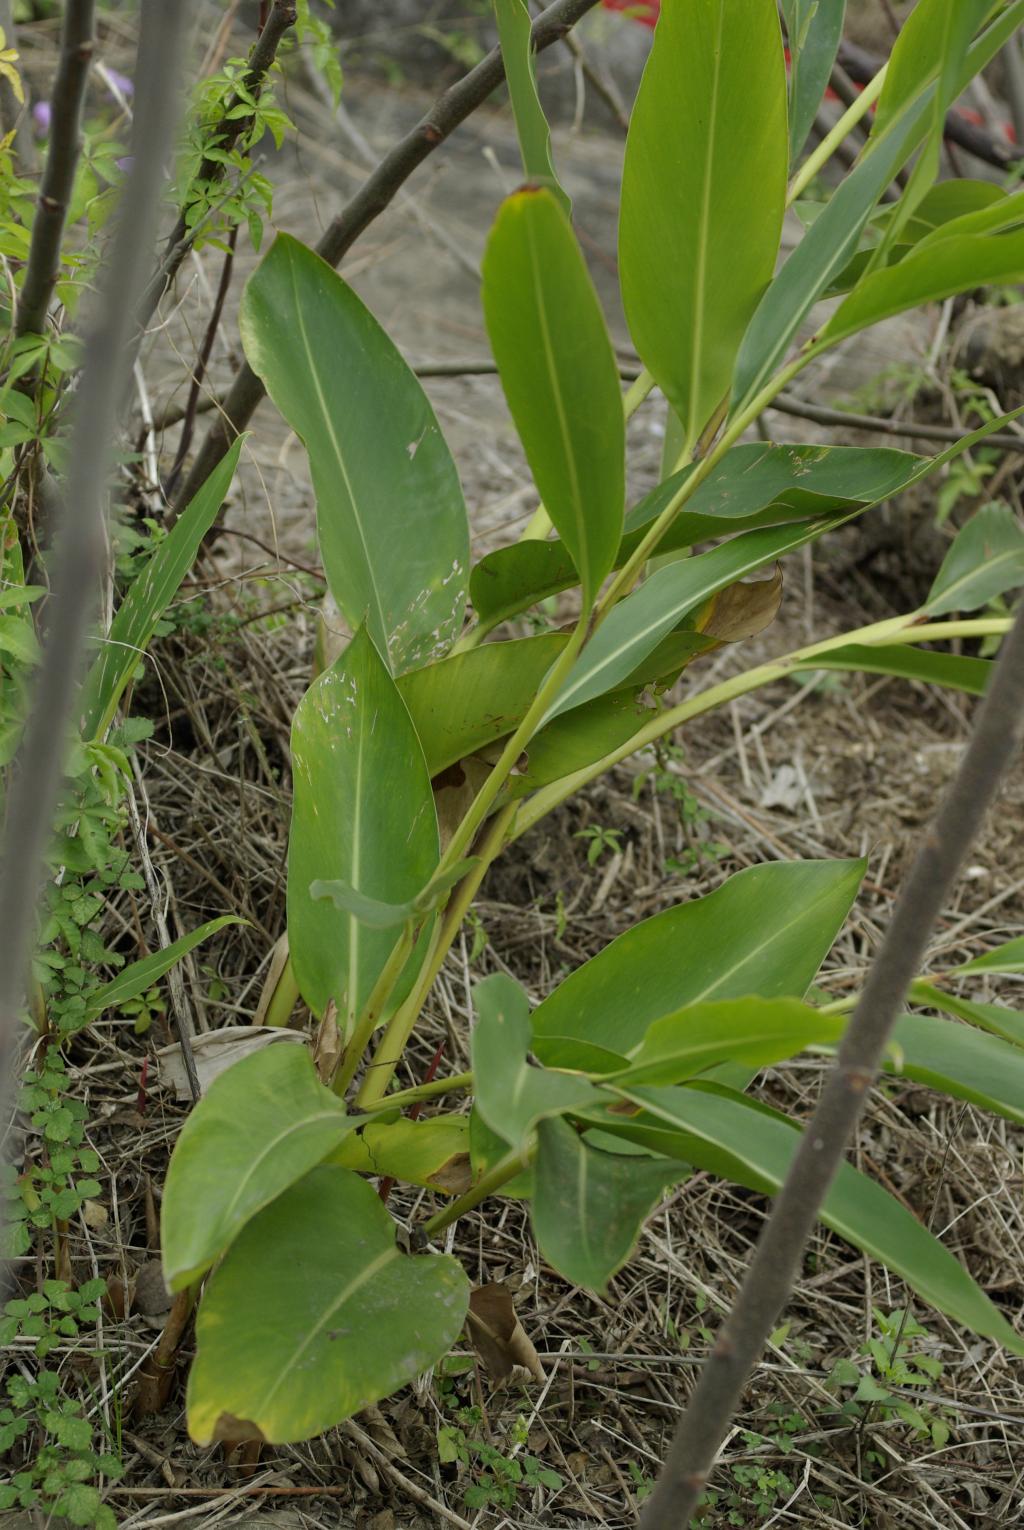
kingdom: Plantae
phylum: Tracheophyta
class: Liliopsida
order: Zingiberales
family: Zingiberaceae
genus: Alpinia
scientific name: Alpinia zerumbet
